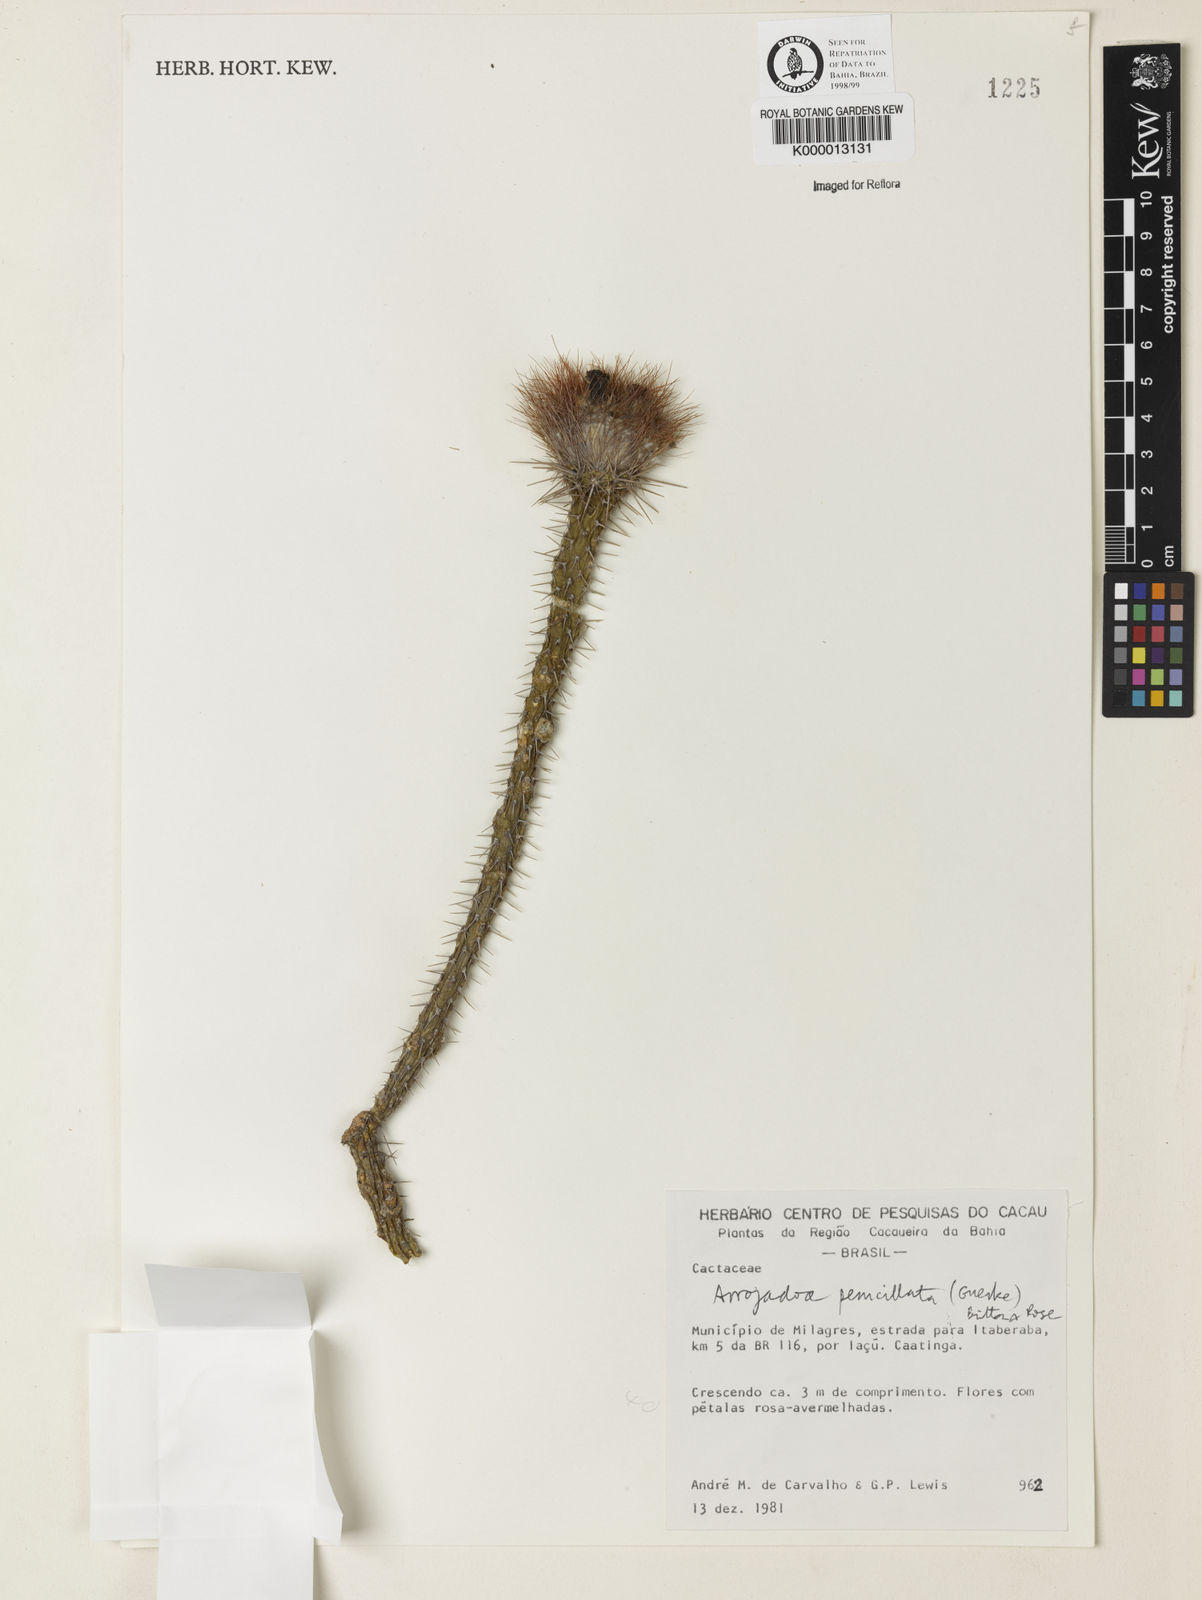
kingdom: Plantae
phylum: Tracheophyta
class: Magnoliopsida
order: Caryophyllales
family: Cactaceae
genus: Arrojadoa
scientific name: Arrojadoa penicillata
